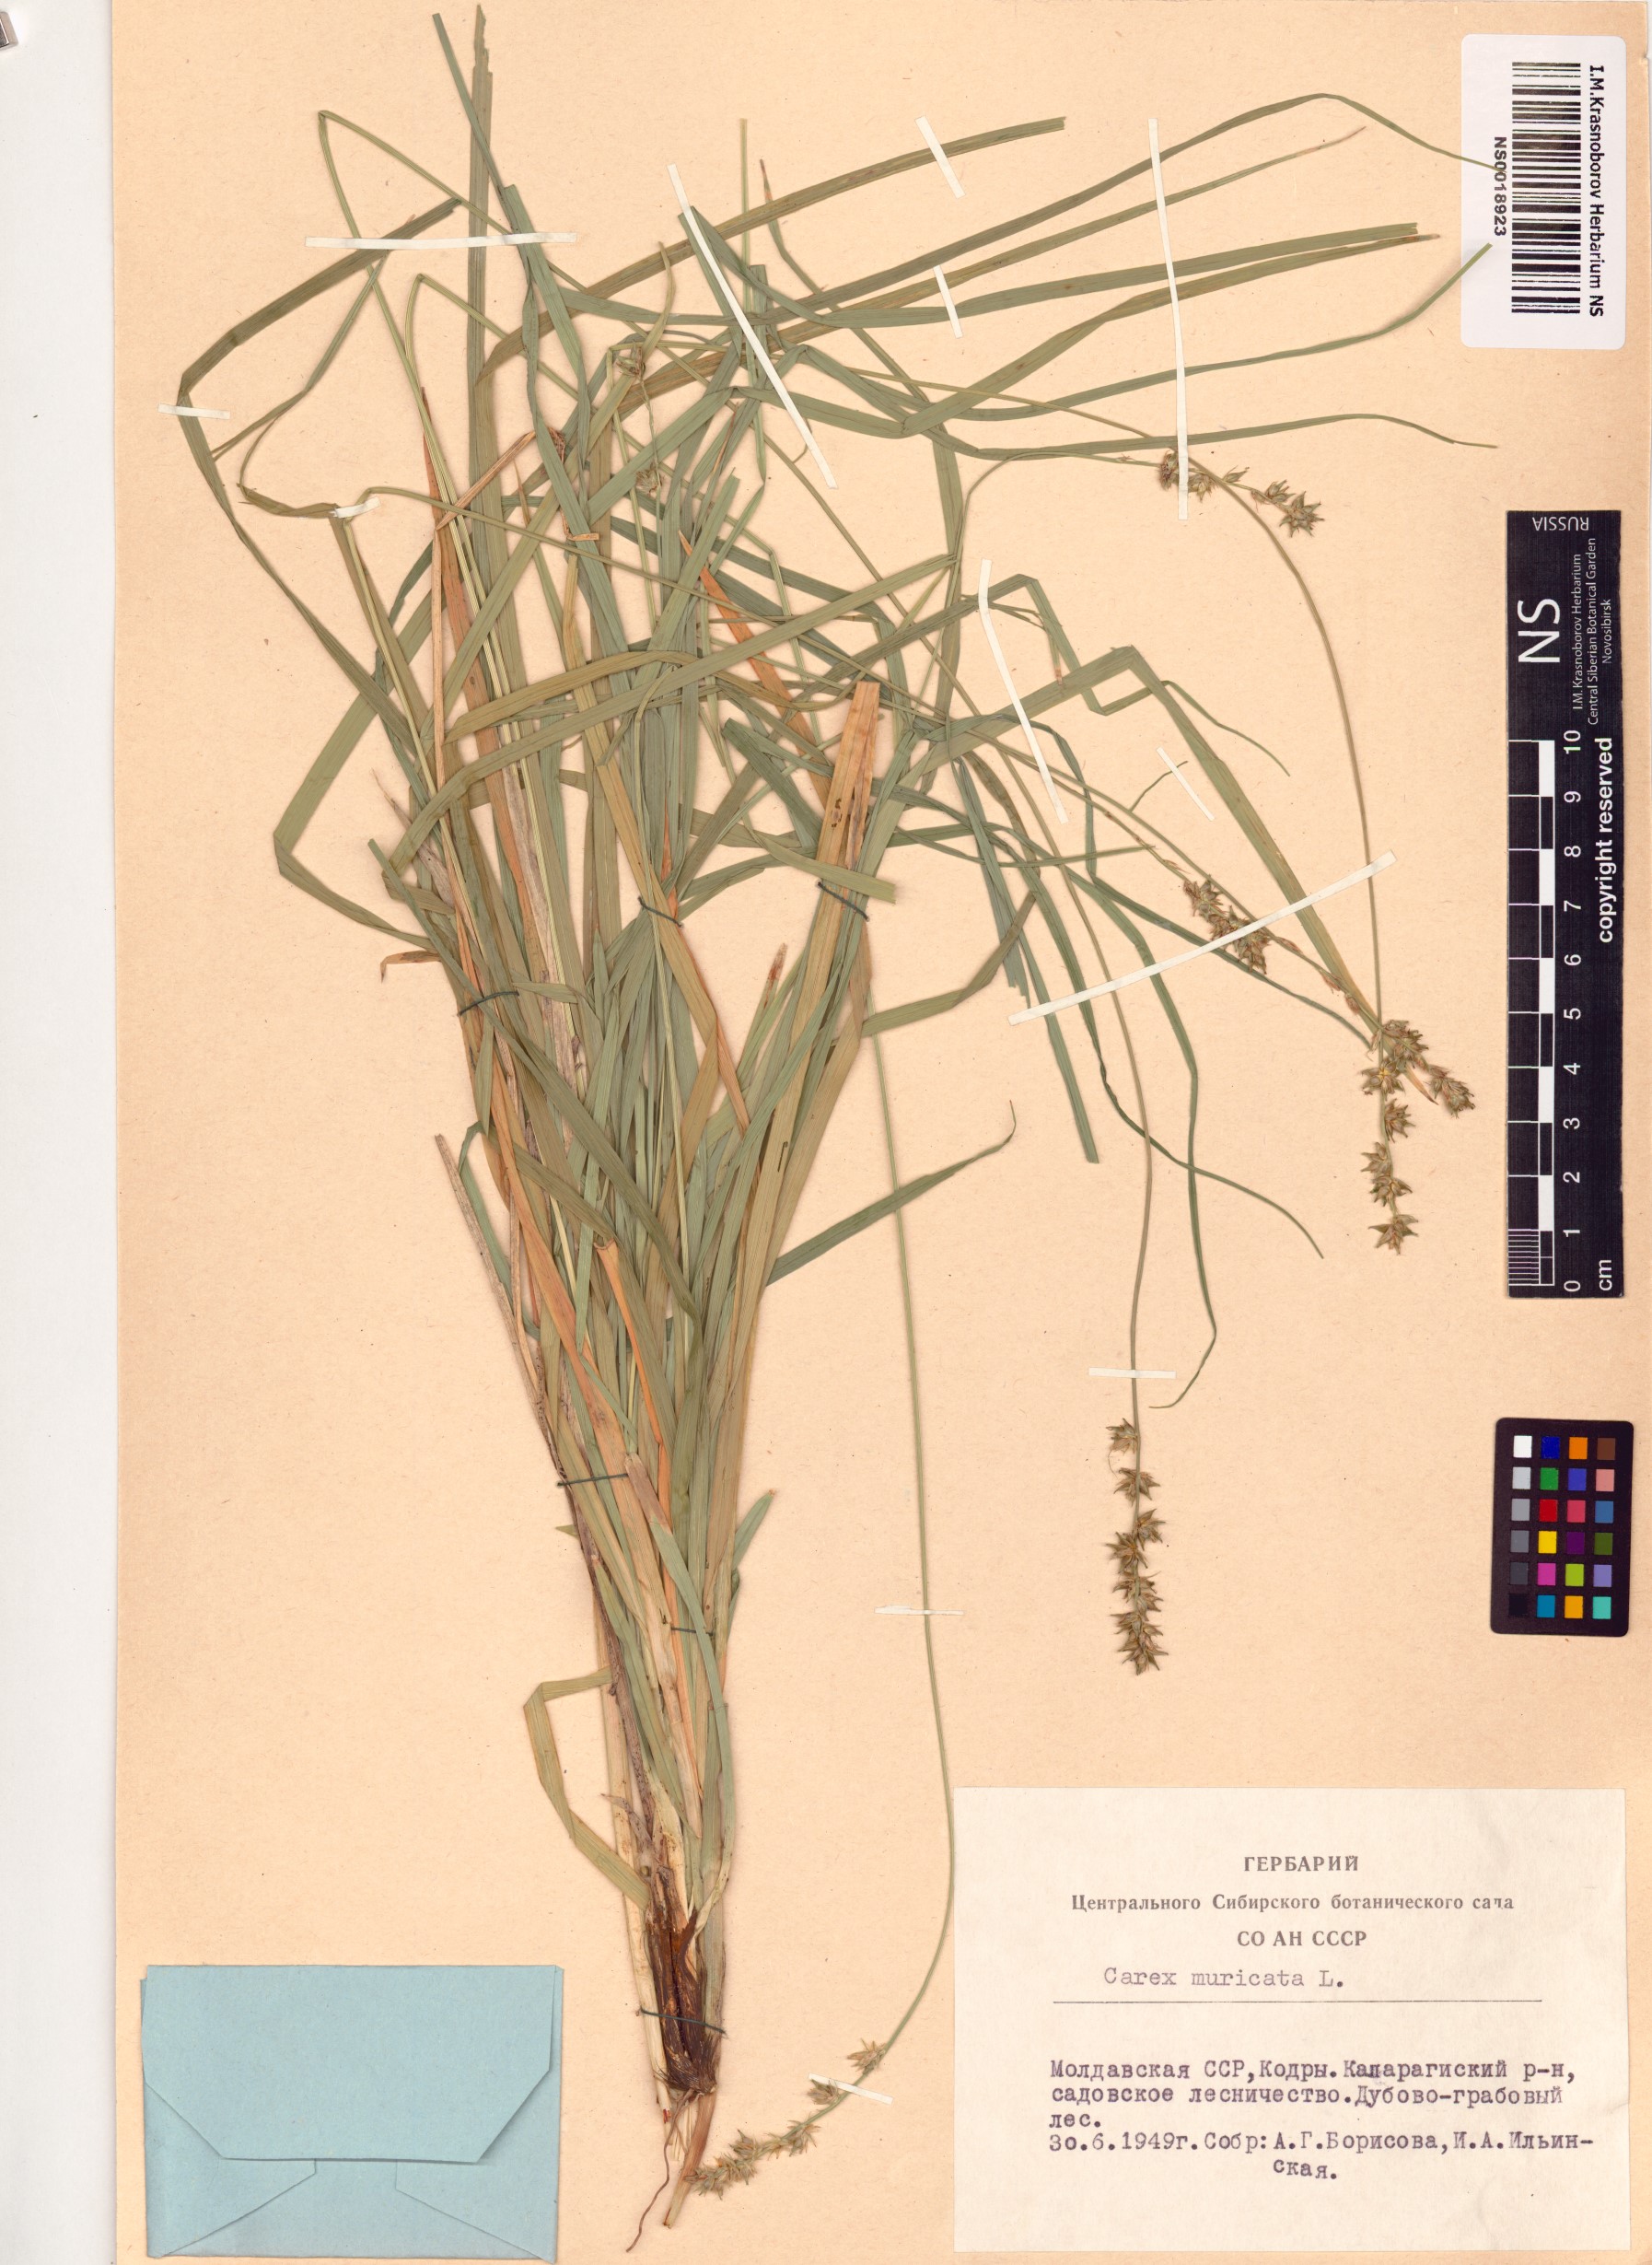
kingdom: Plantae
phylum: Tracheophyta
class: Liliopsida
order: Poales
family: Cyperaceae
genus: Carex
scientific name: Carex muricata
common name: Rough sedge
